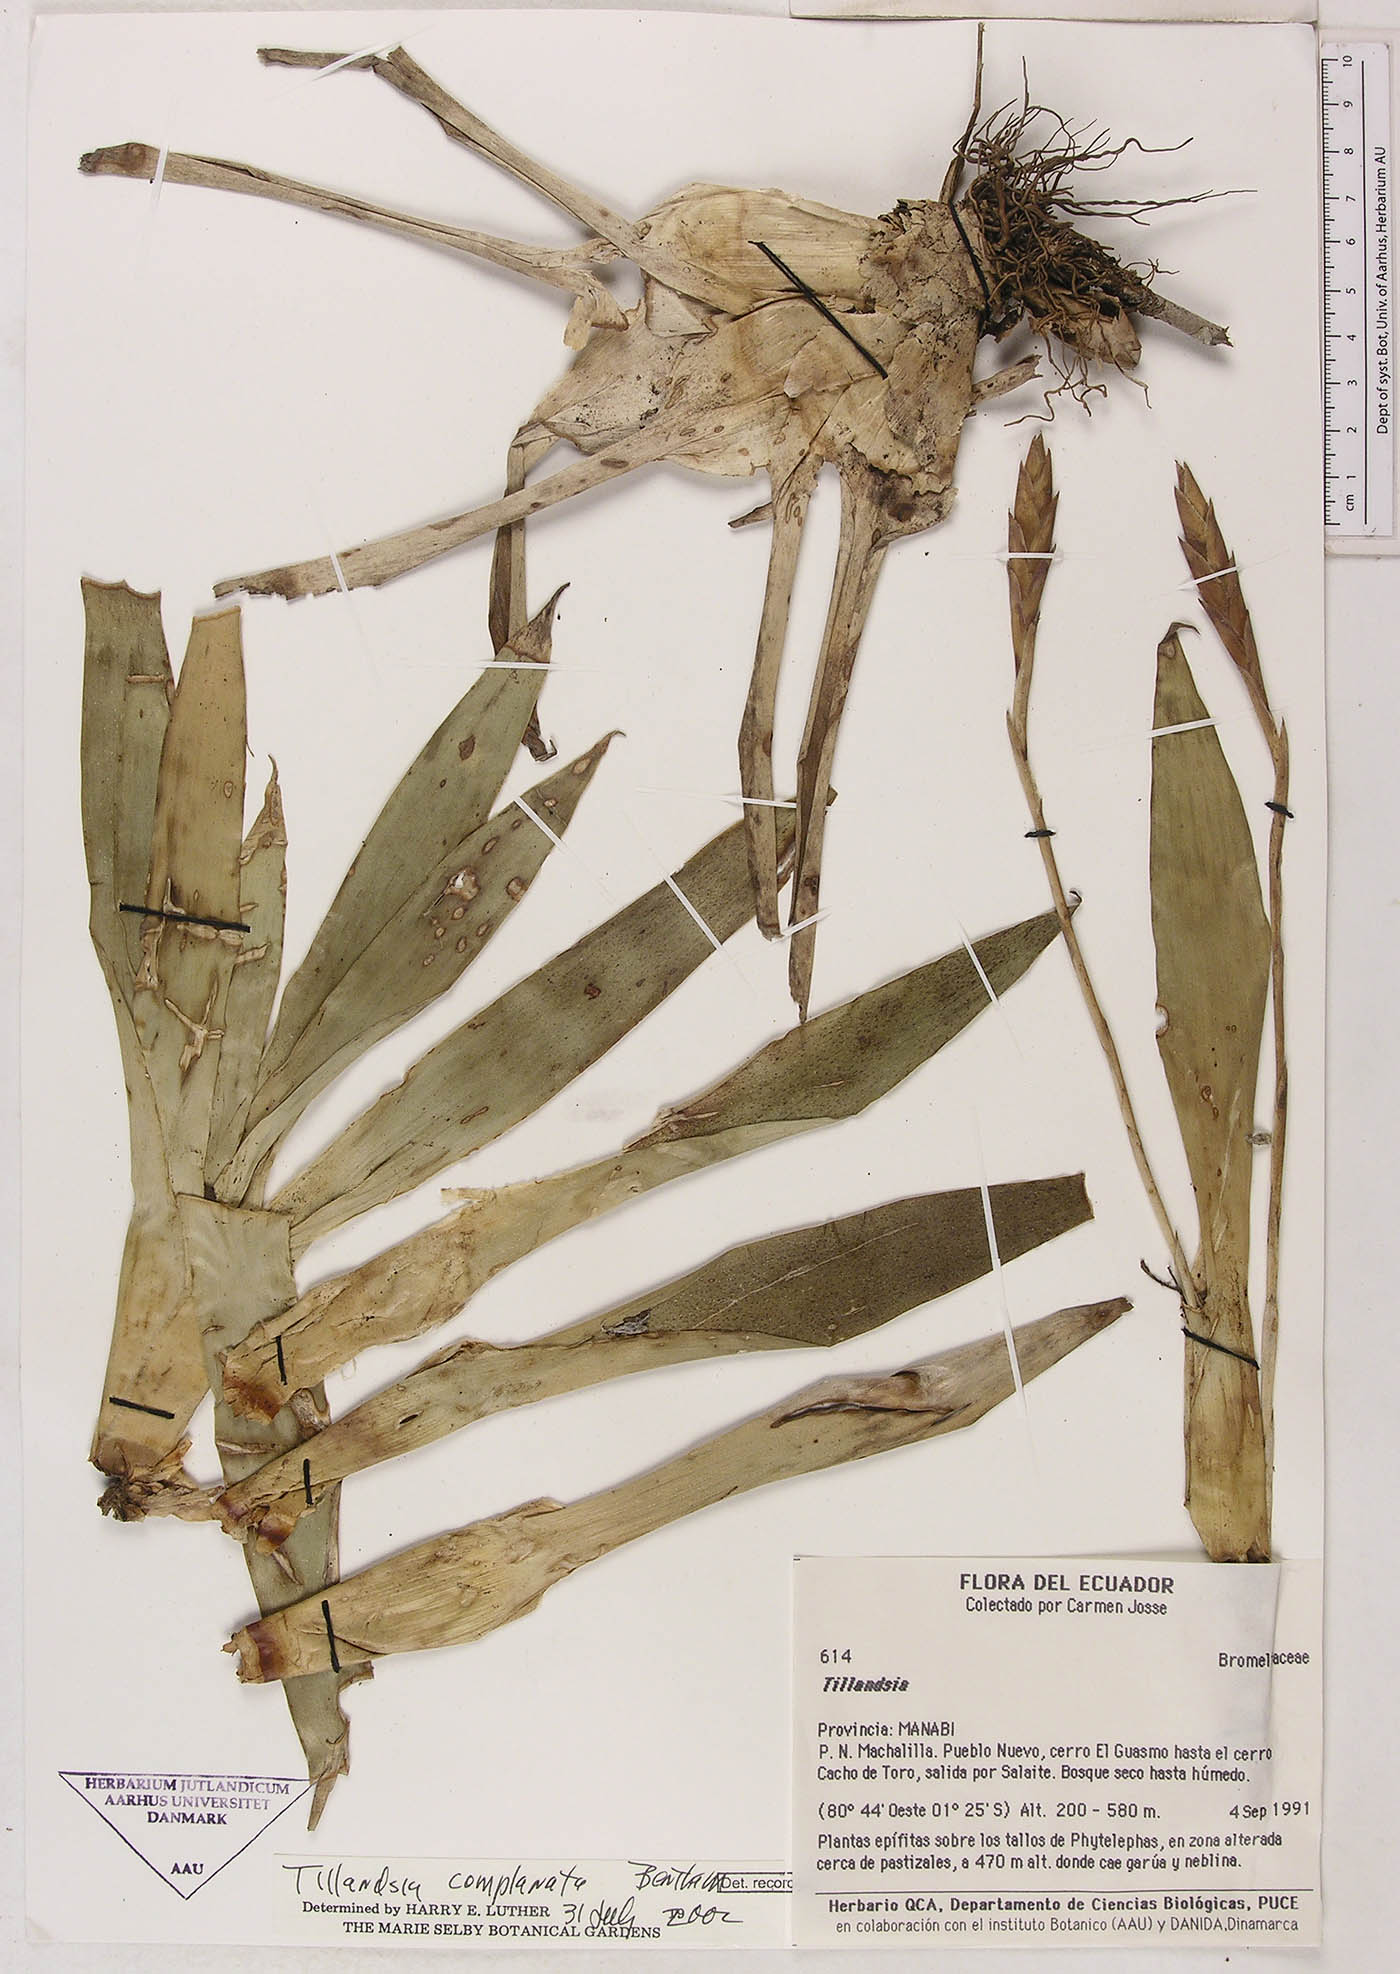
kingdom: Plantae
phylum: Tracheophyta
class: Liliopsida
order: Poales
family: Bromeliaceae
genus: Tillandsia
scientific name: Tillandsia complanata
